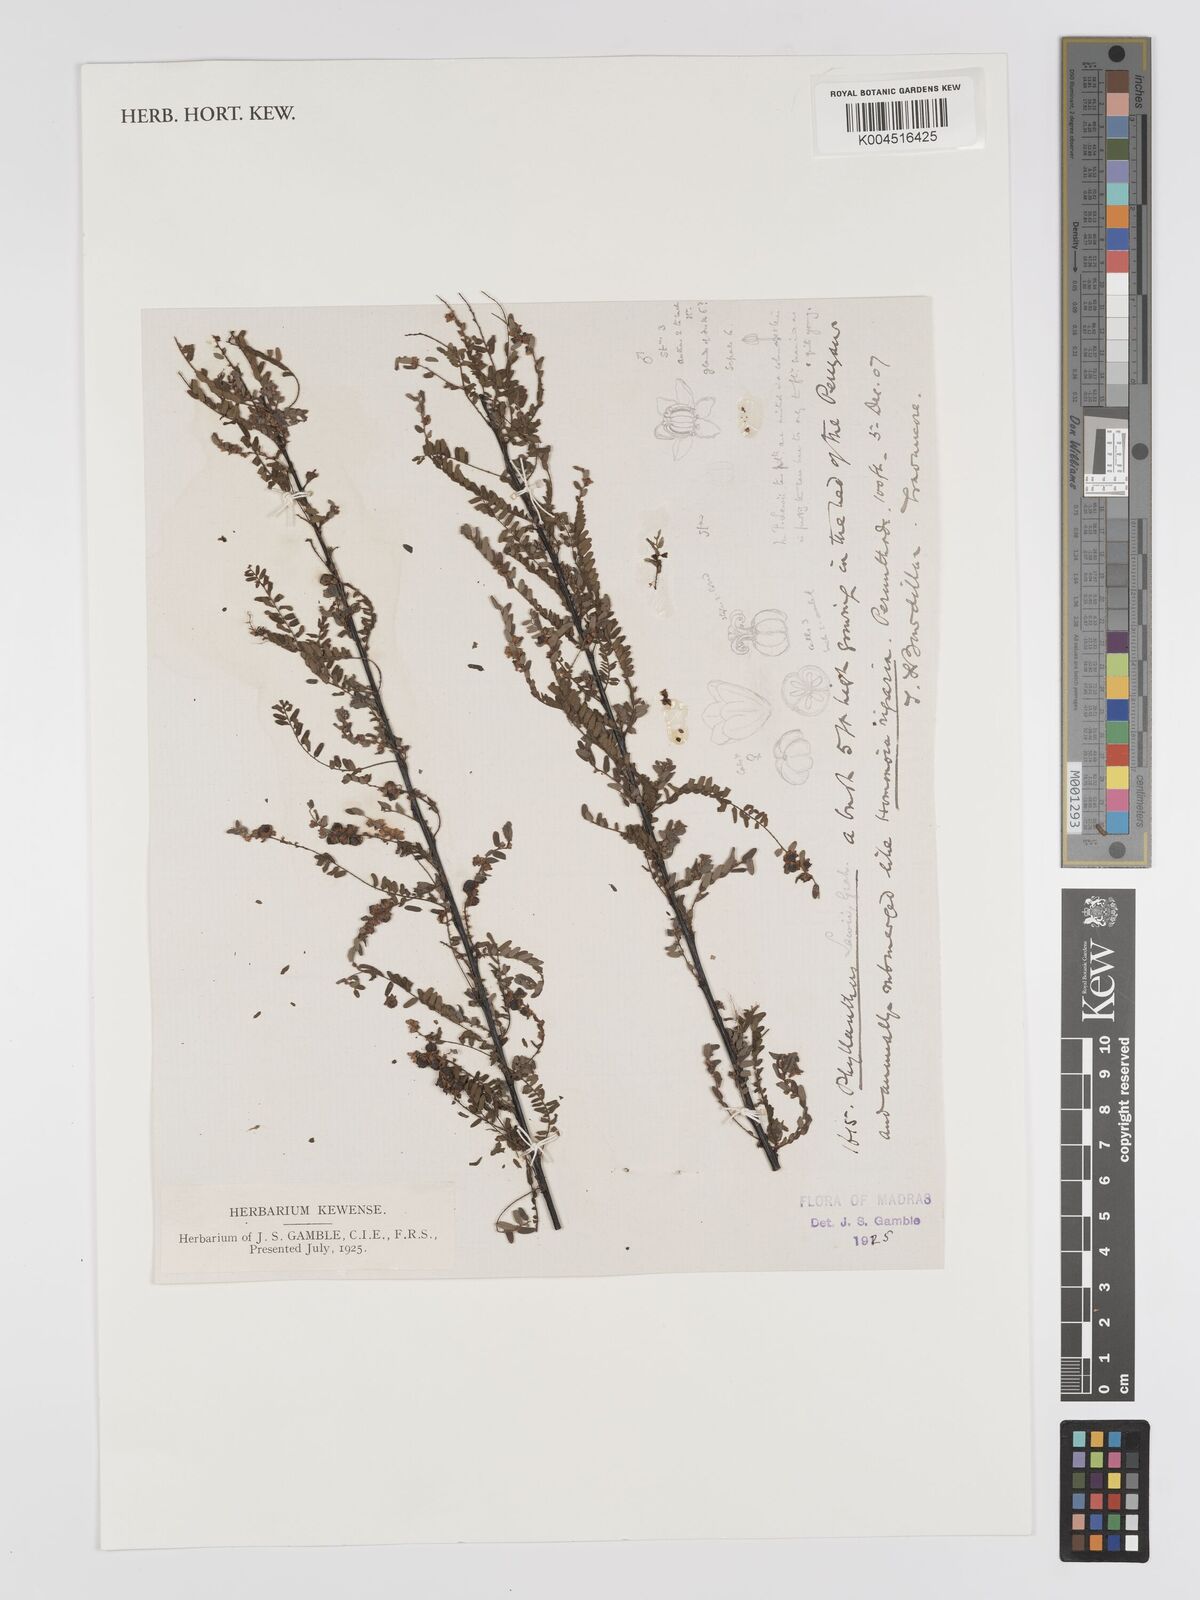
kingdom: Plantae
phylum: Tracheophyta
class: Magnoliopsida
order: Malpighiales
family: Phyllanthaceae
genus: Phyllanthus
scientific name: Phyllanthus lawii
